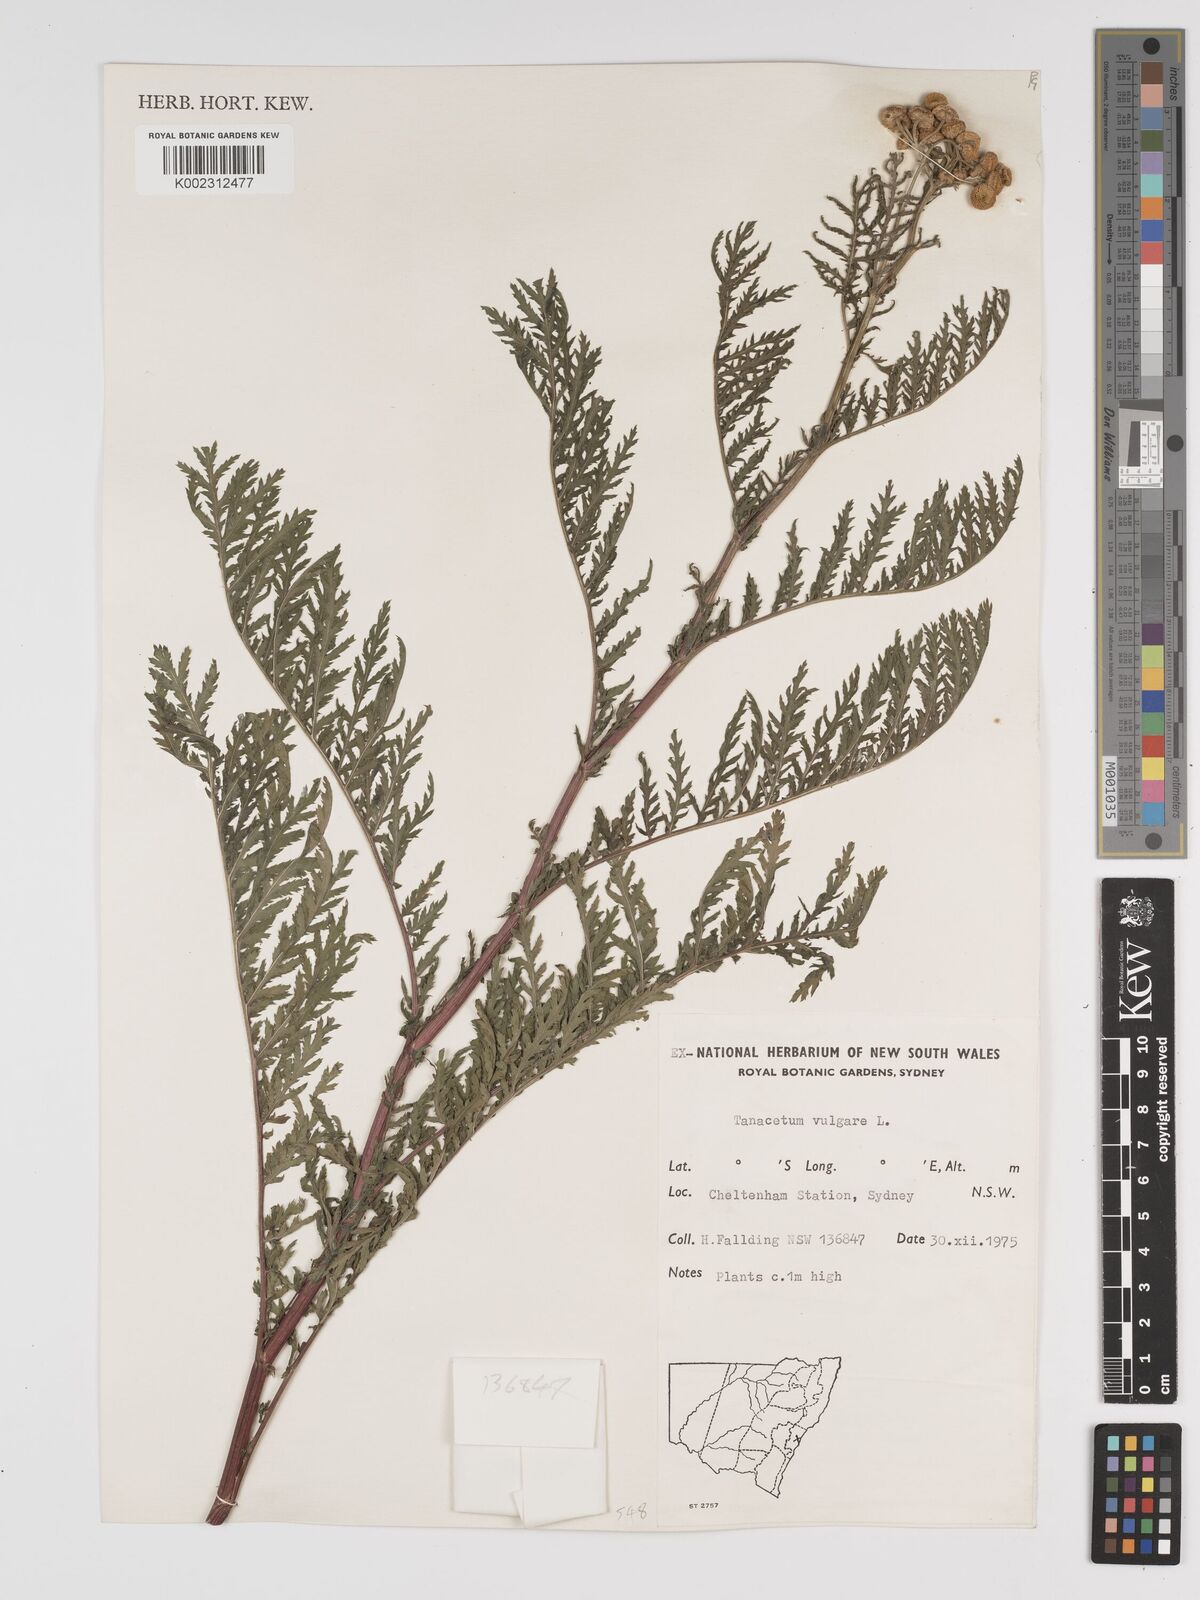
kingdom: Plantae
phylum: Tracheophyta
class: Magnoliopsida
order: Asterales
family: Asteraceae
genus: Tanacetum
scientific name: Tanacetum vulgare
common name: Common tansy
